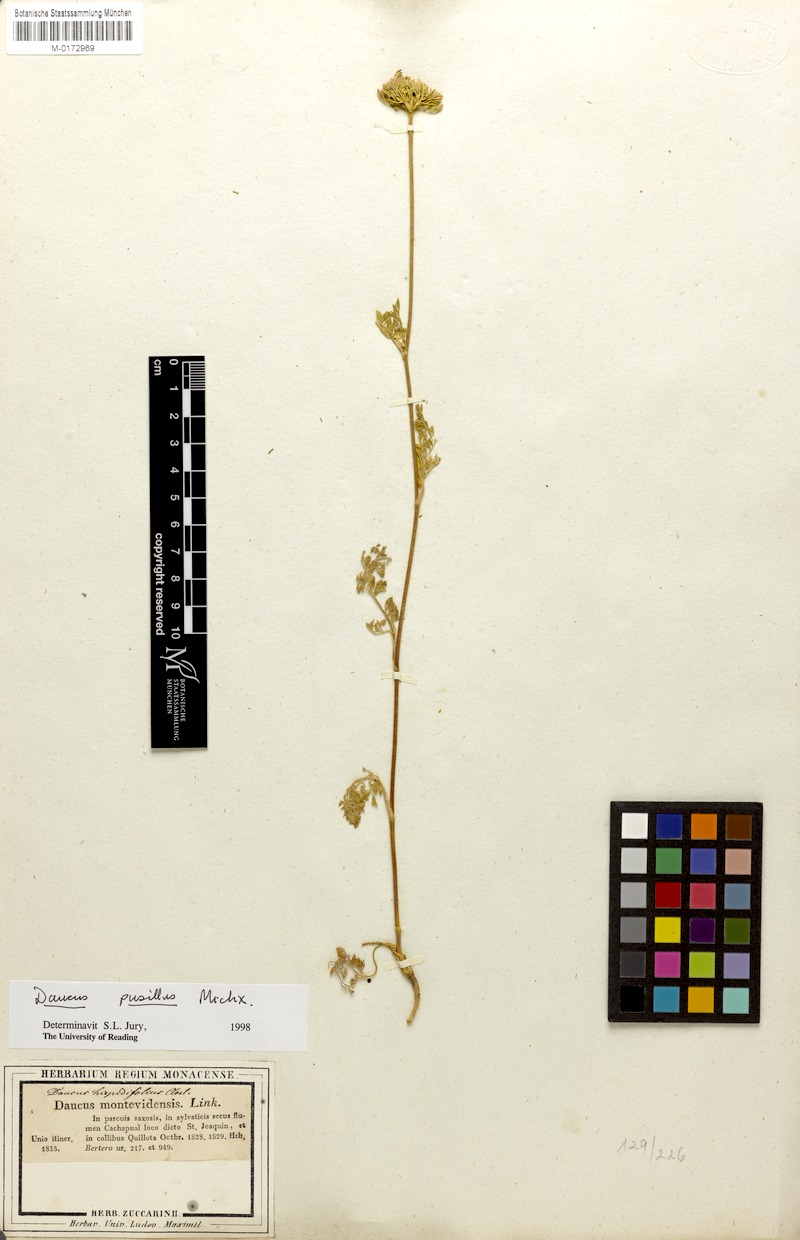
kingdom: Plantae
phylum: Tracheophyta
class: Magnoliopsida
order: Apiales
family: Apiaceae
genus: Daucus
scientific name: Daucus pusillus
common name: Southwest wild carrot
